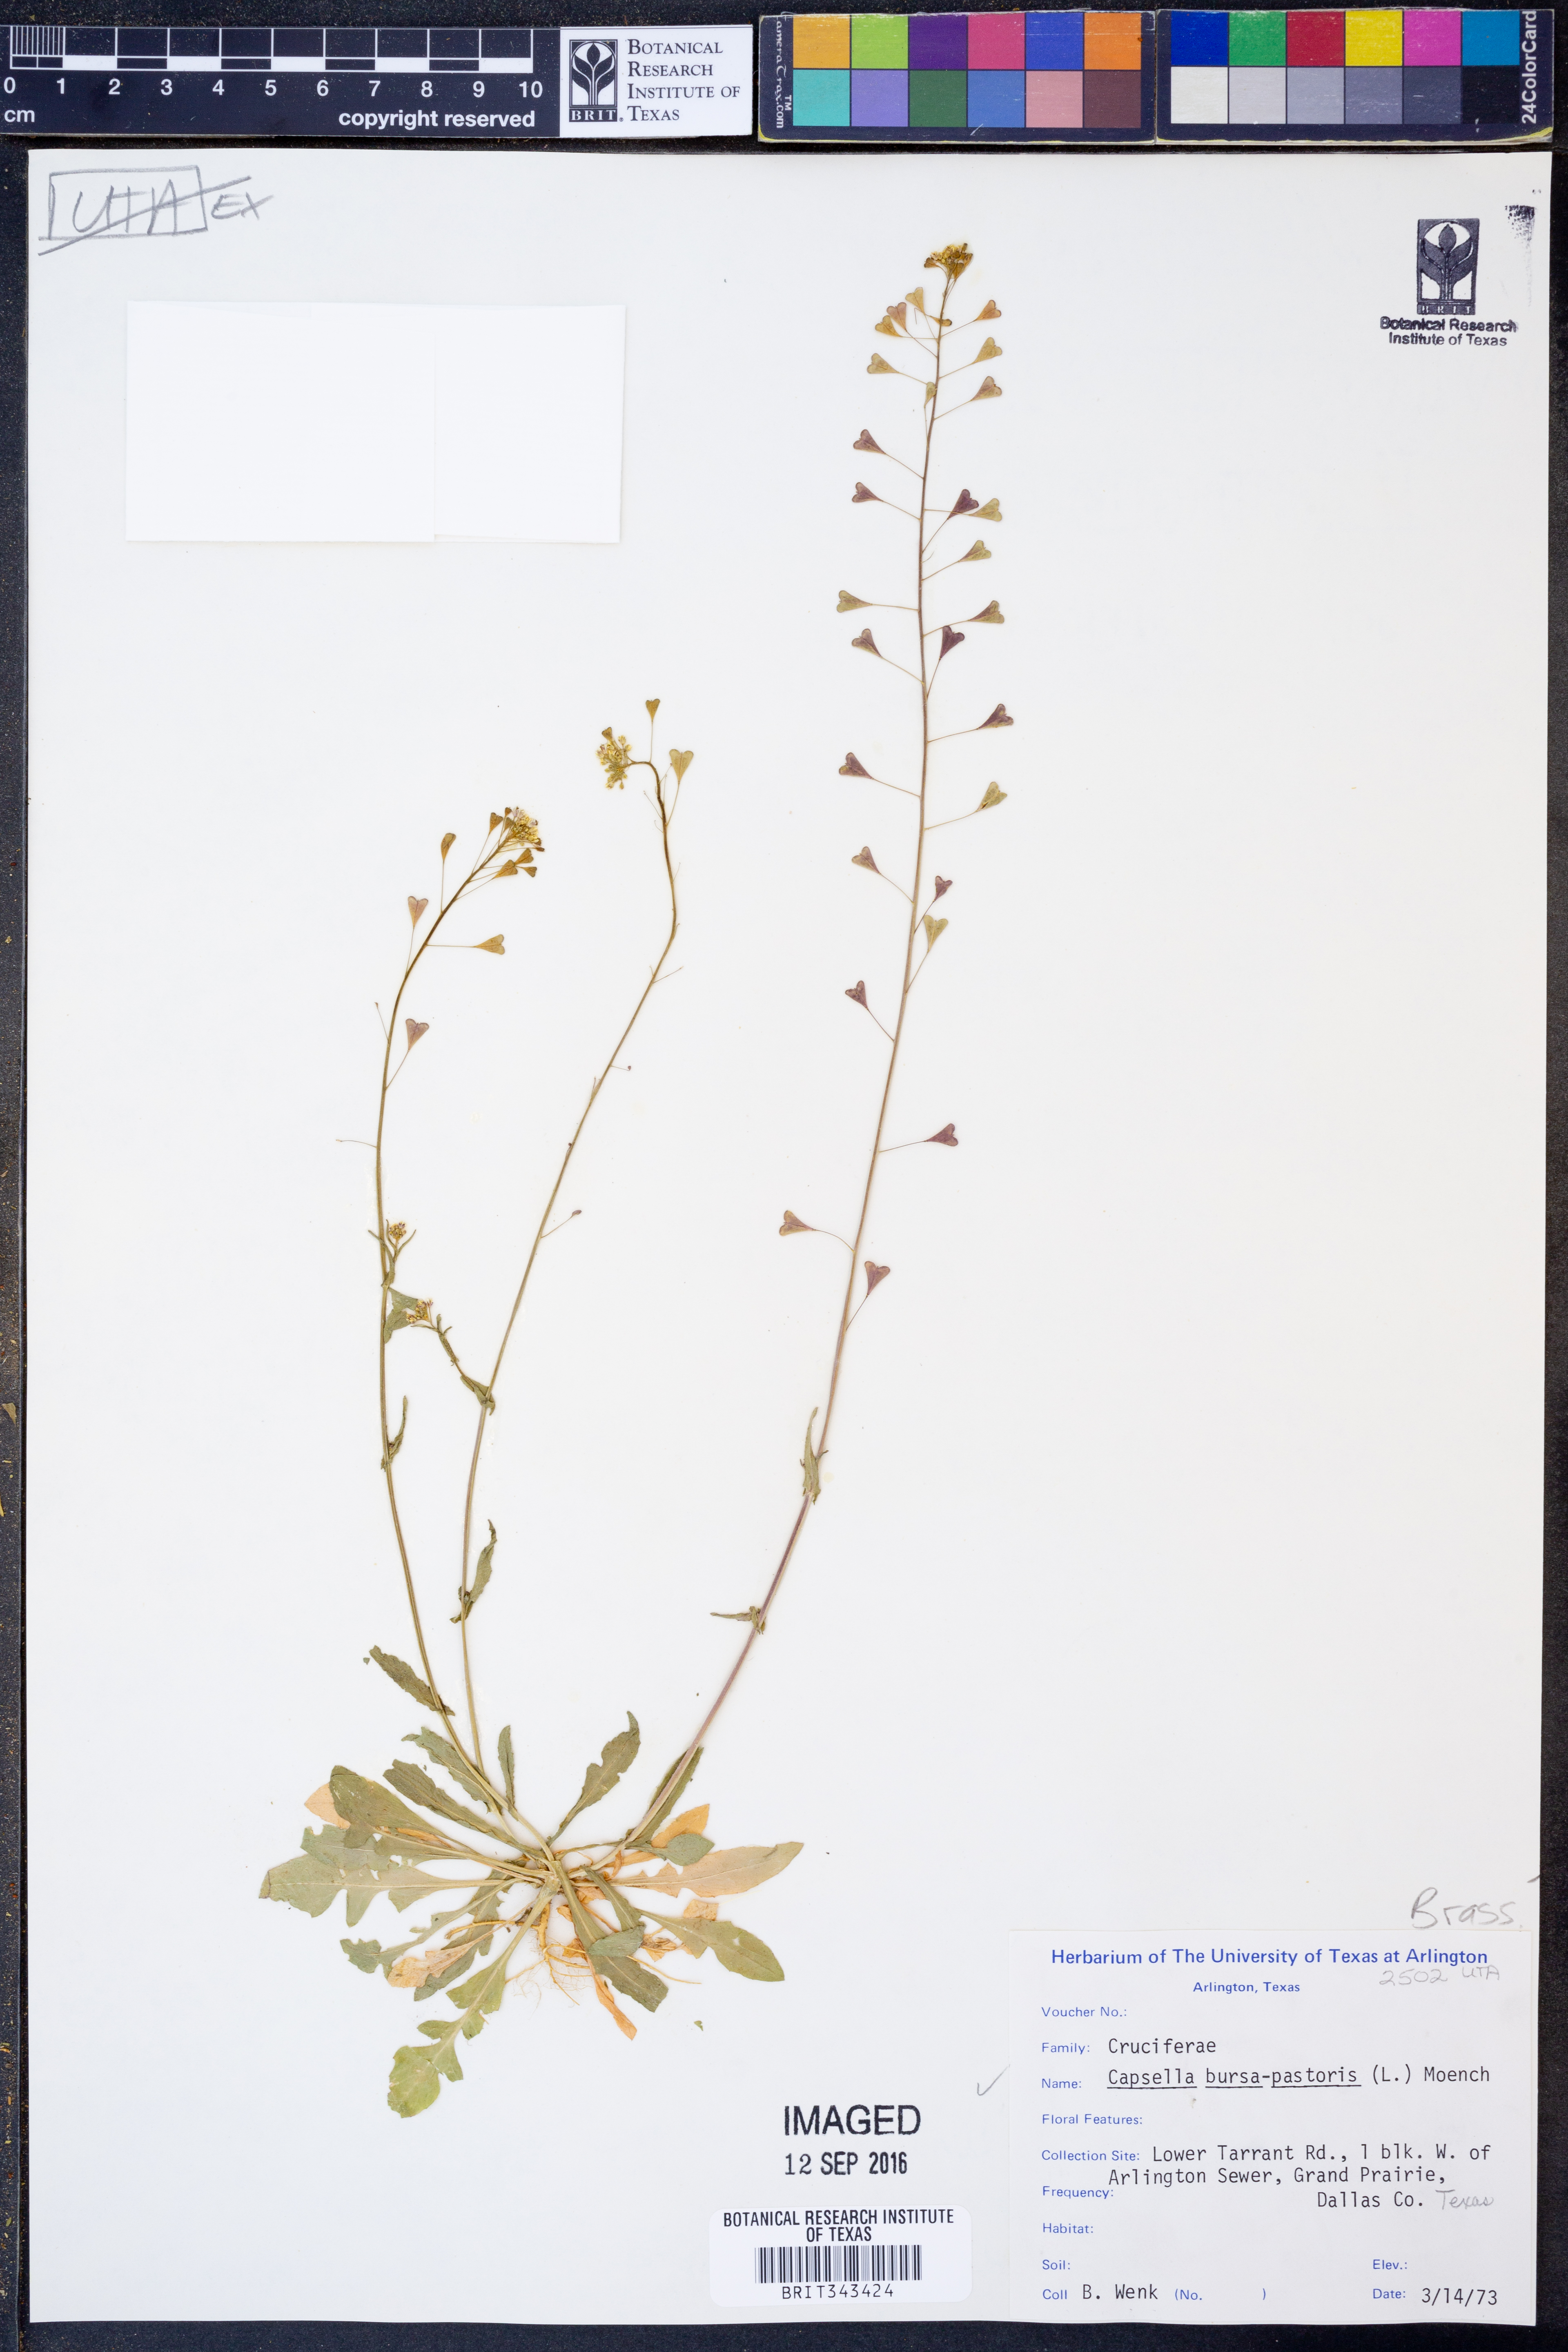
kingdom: Plantae
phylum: Tracheophyta
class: Magnoliopsida
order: Brassicales
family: Brassicaceae
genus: Capsella
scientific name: Capsella bursa-pastoris
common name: Shepherd's purse
